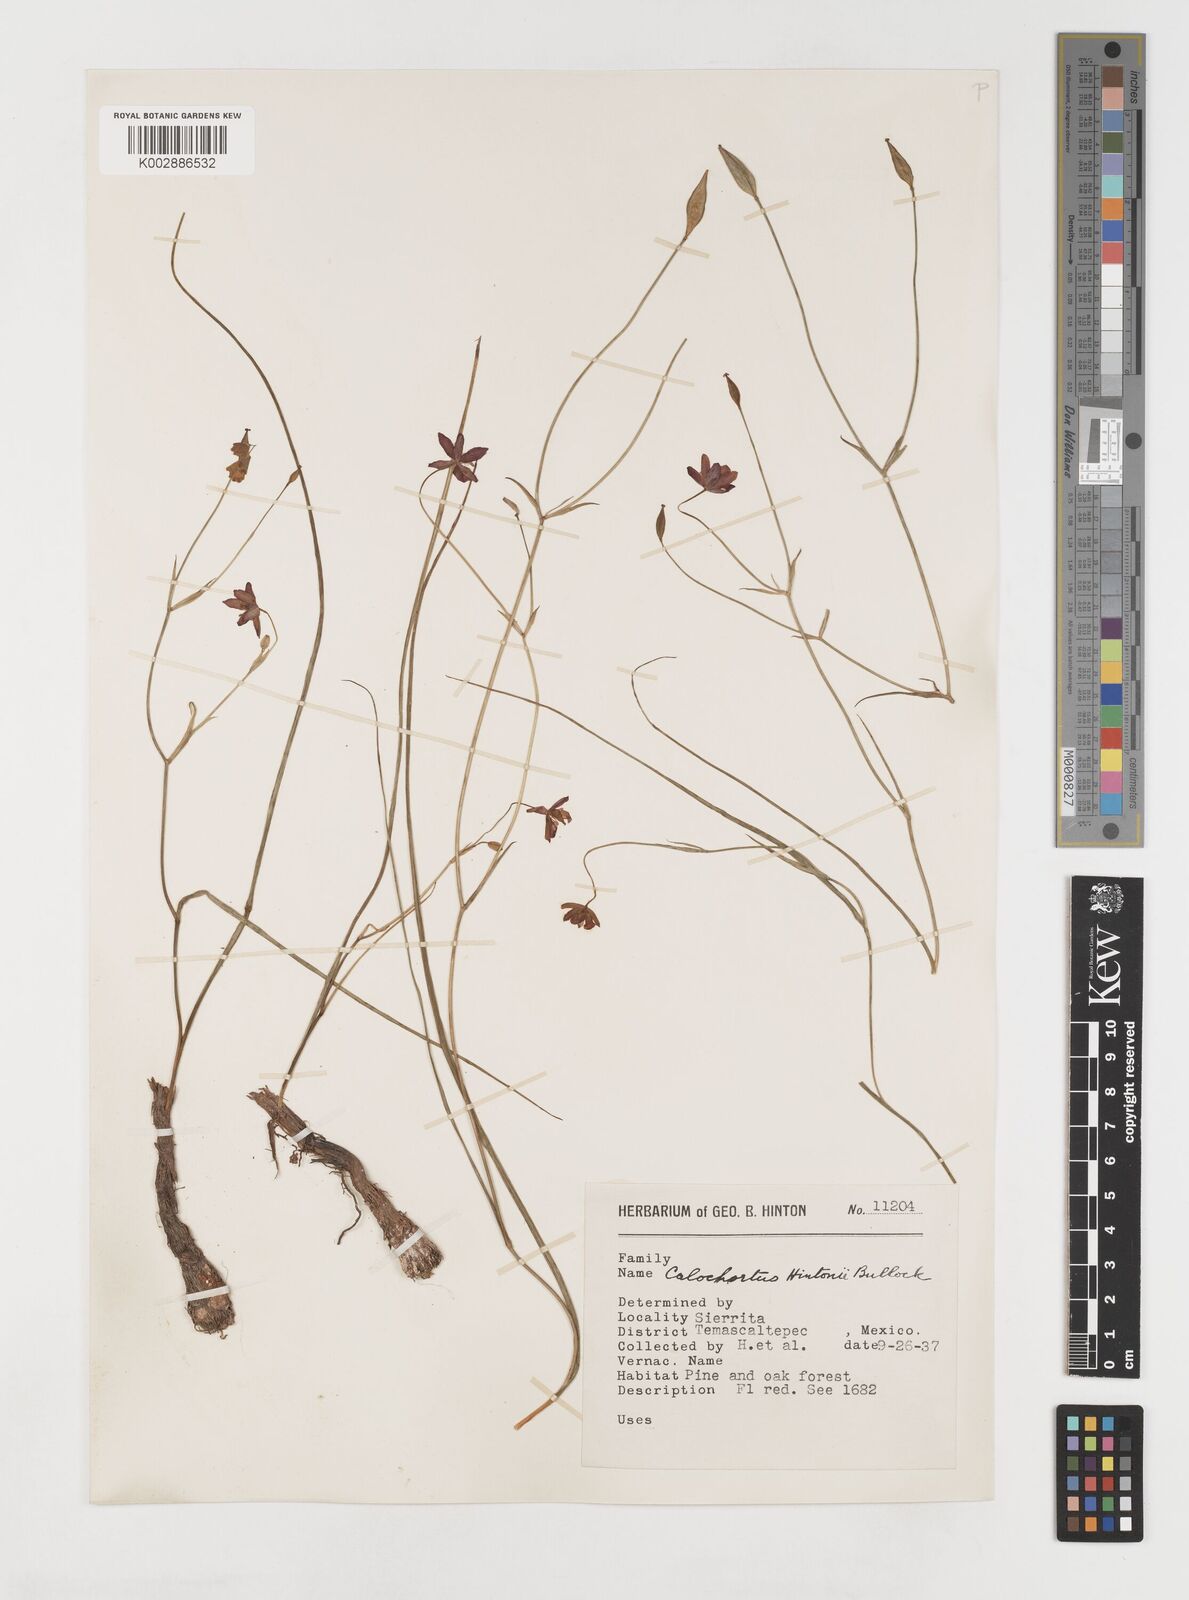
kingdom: Plantae
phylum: Tracheophyta
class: Liliopsida
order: Liliales
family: Liliaceae
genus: Calochortus
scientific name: Calochortus fuscus
